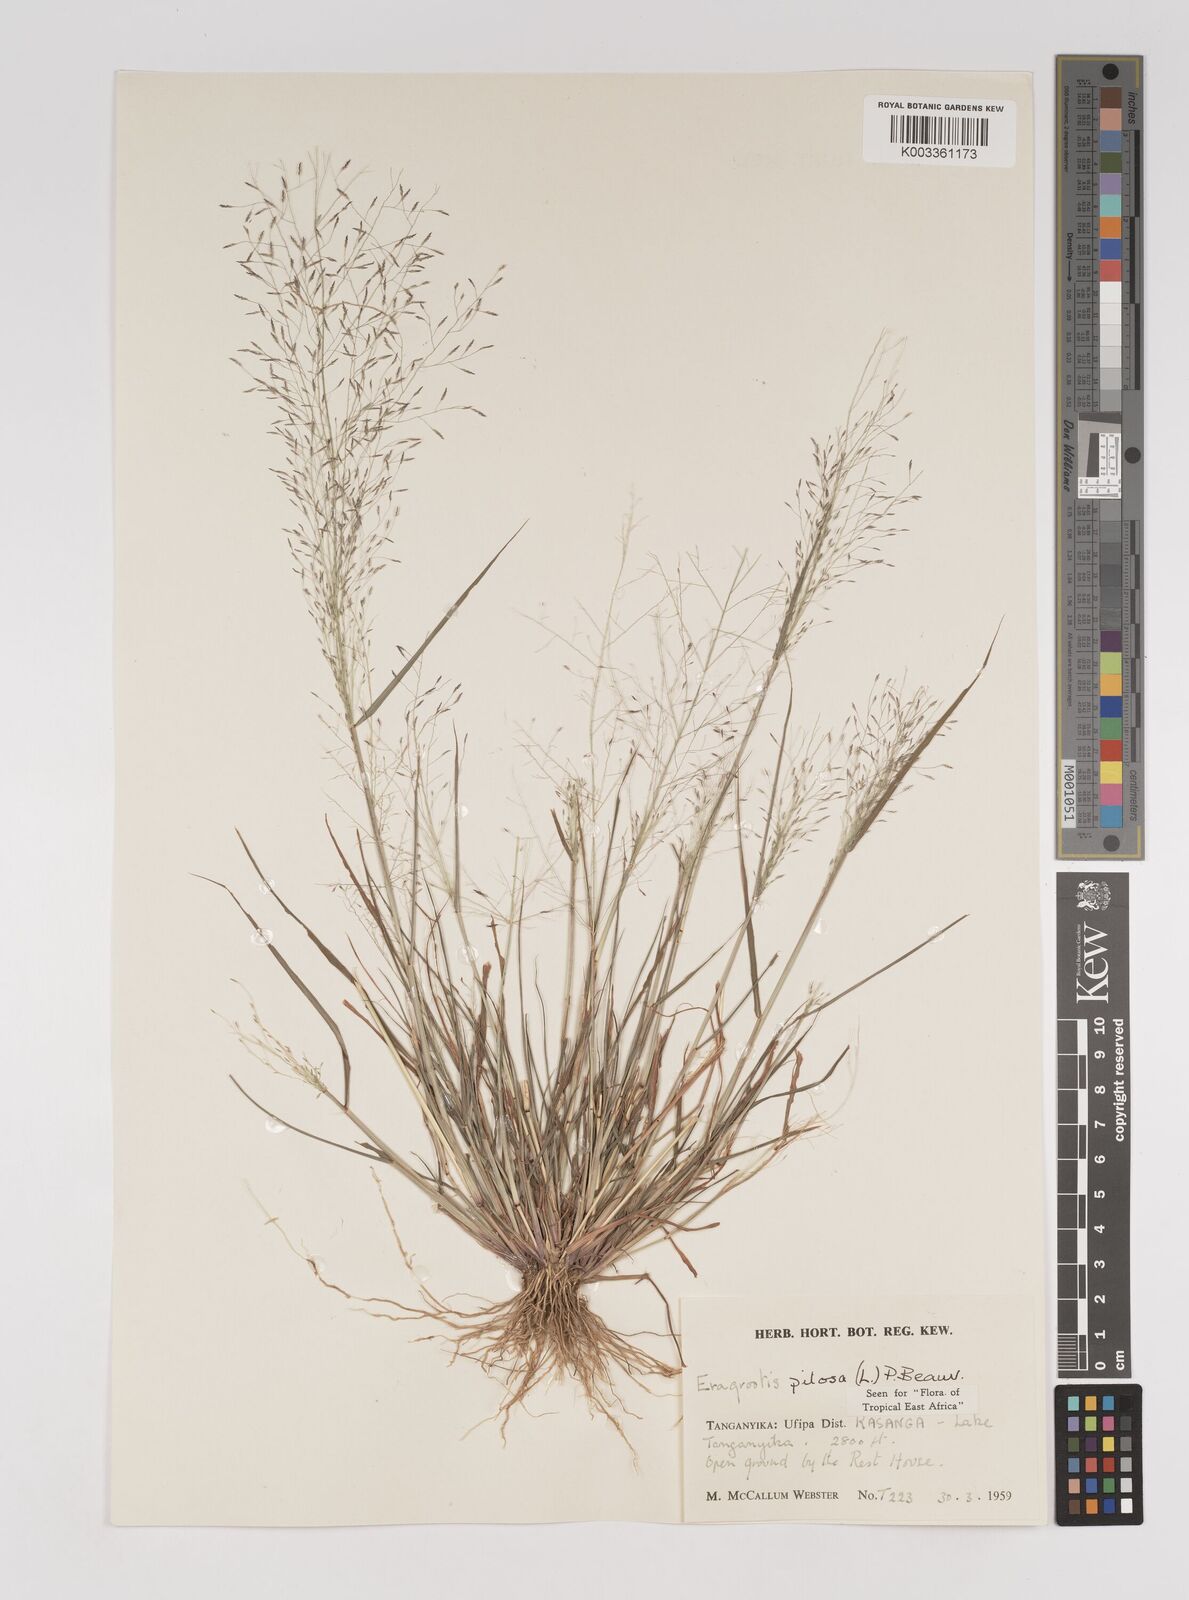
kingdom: Plantae
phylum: Tracheophyta
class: Liliopsida
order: Poales
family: Poaceae
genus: Eragrostis
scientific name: Eragrostis pilosa
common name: Indian lovegrass
